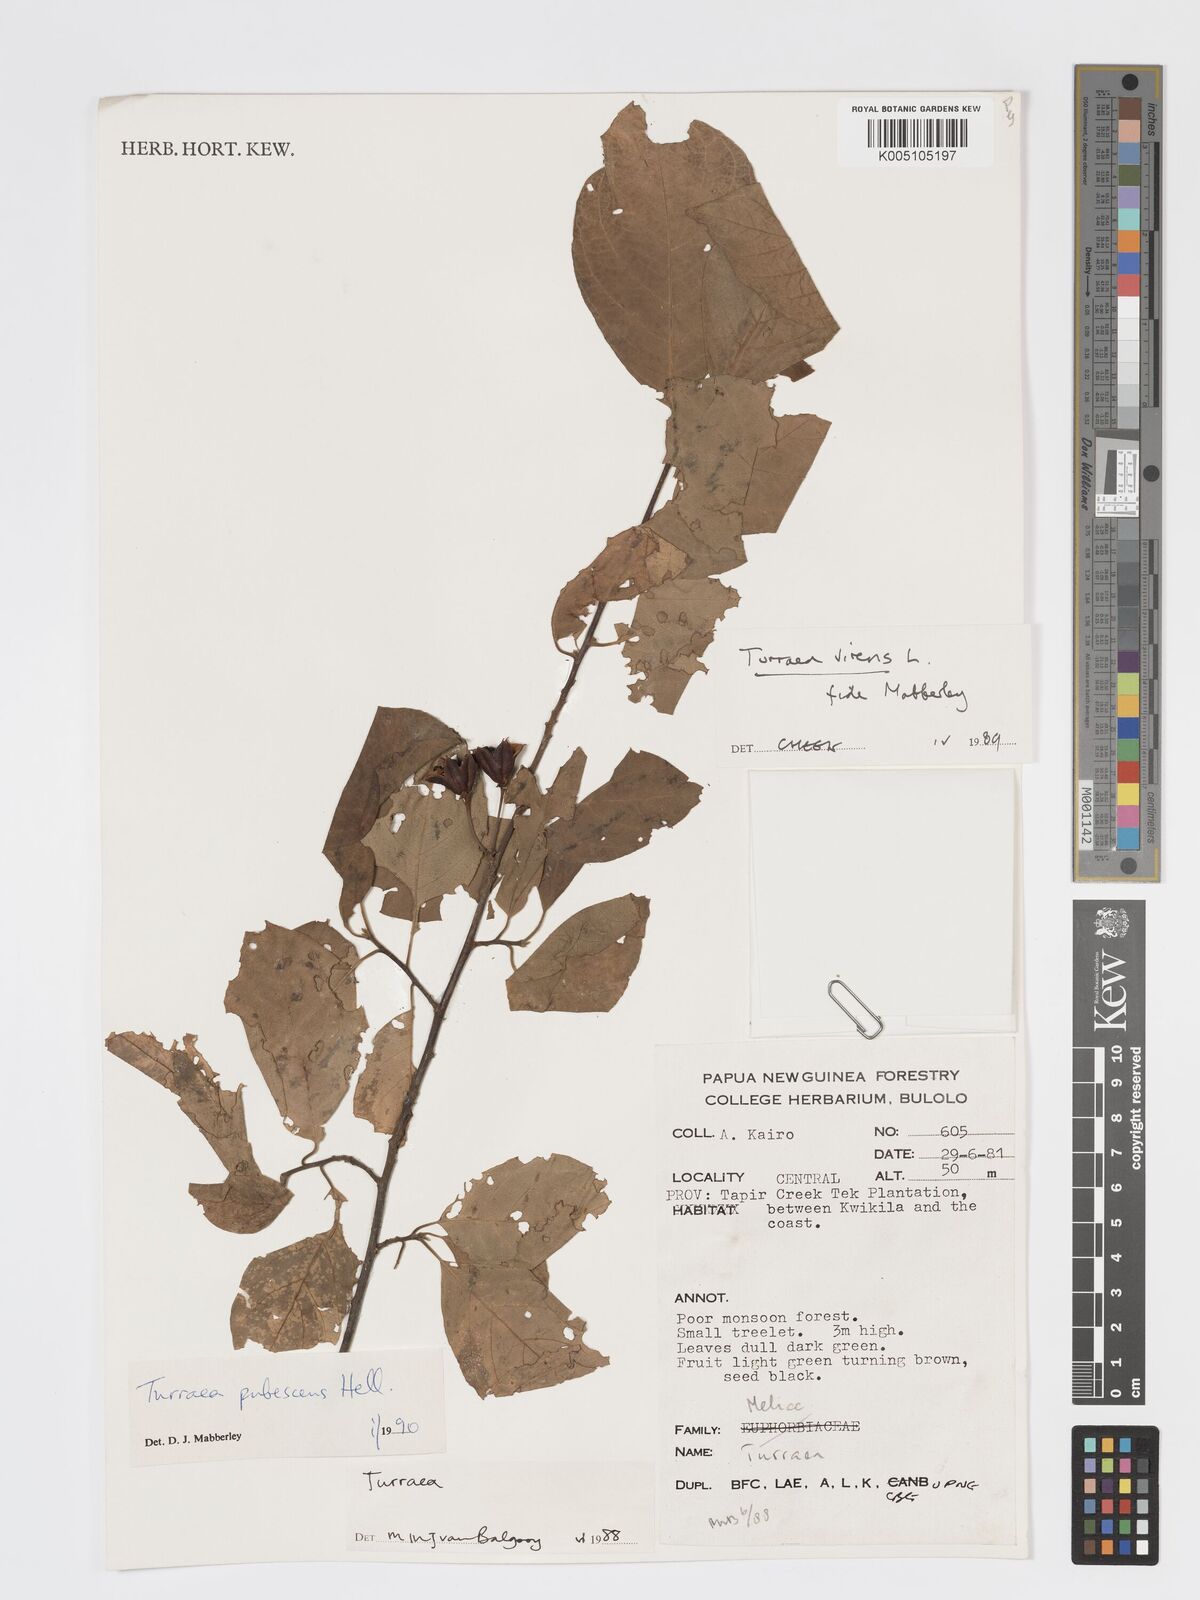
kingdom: Plantae
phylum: Tracheophyta
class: Magnoliopsida
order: Sapindales
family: Meliaceae
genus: Turraea
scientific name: Turraea
